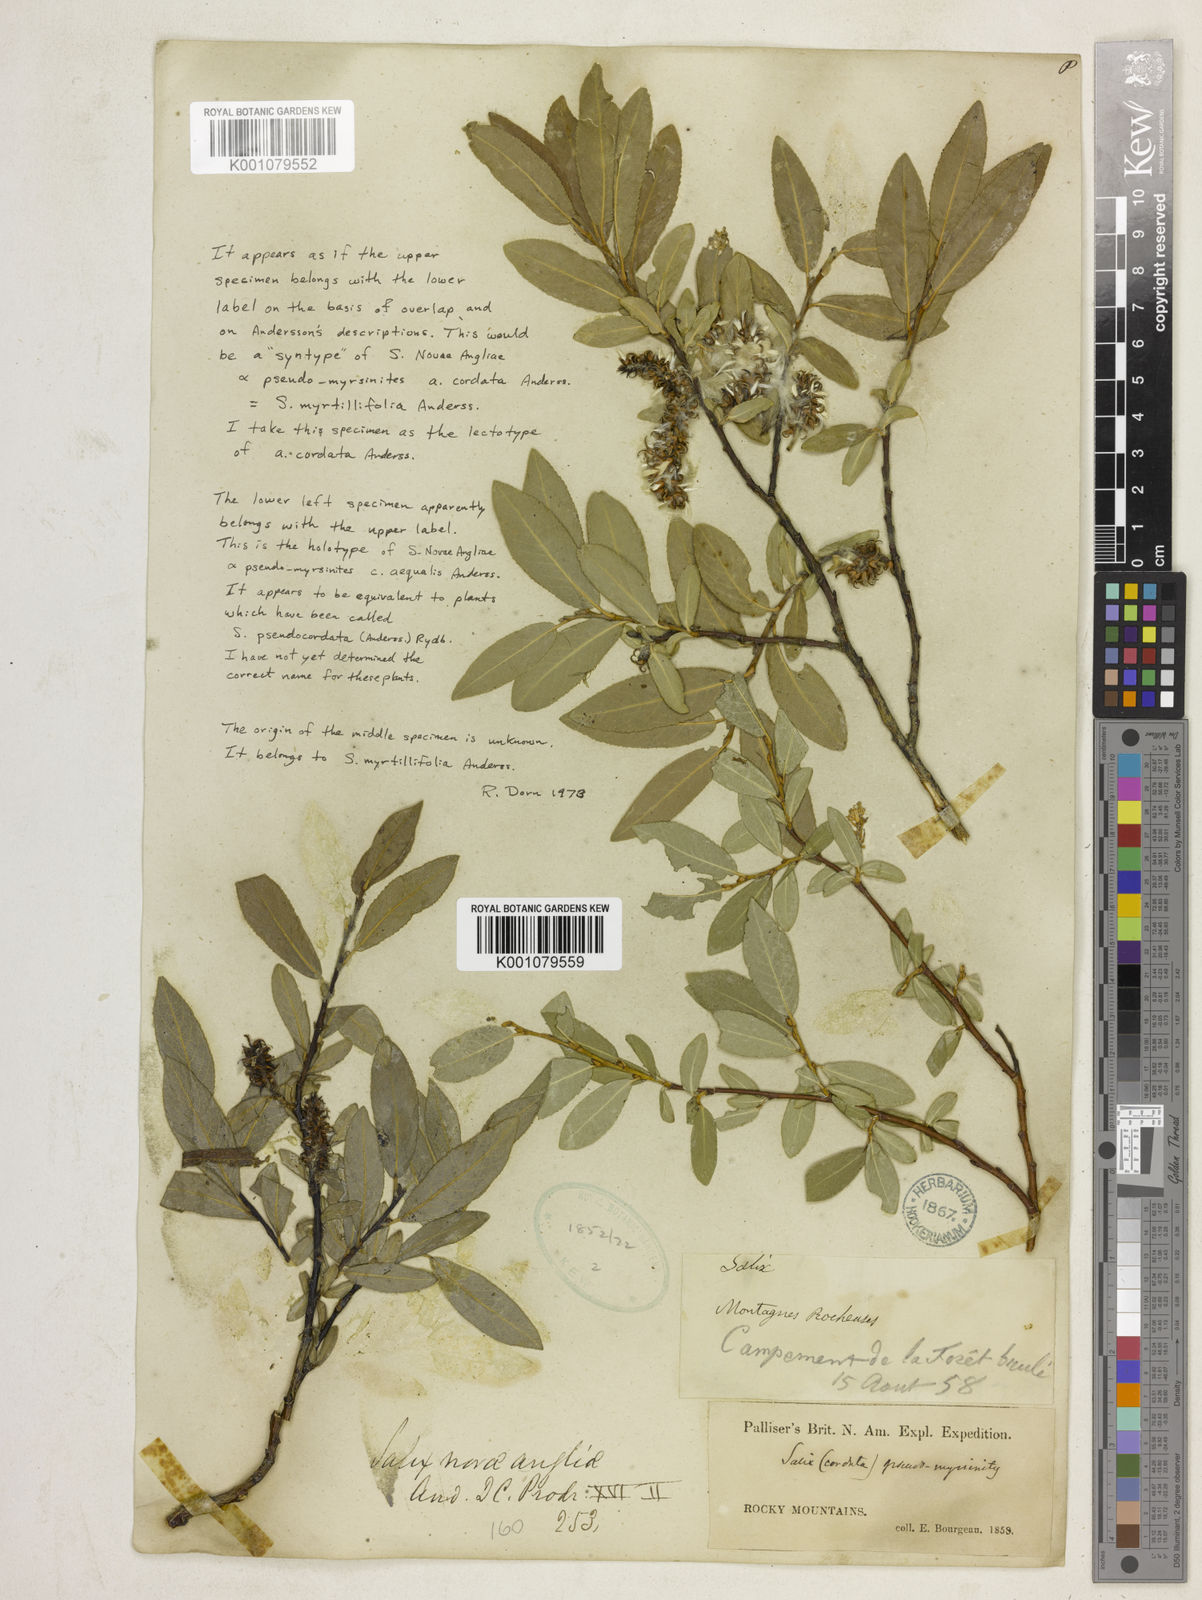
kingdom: Plantae
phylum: Tracheophyta
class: Magnoliopsida
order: Malpighiales
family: Salicaceae
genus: Salix
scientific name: Salix myrtillifolia
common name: Bilberry willow
